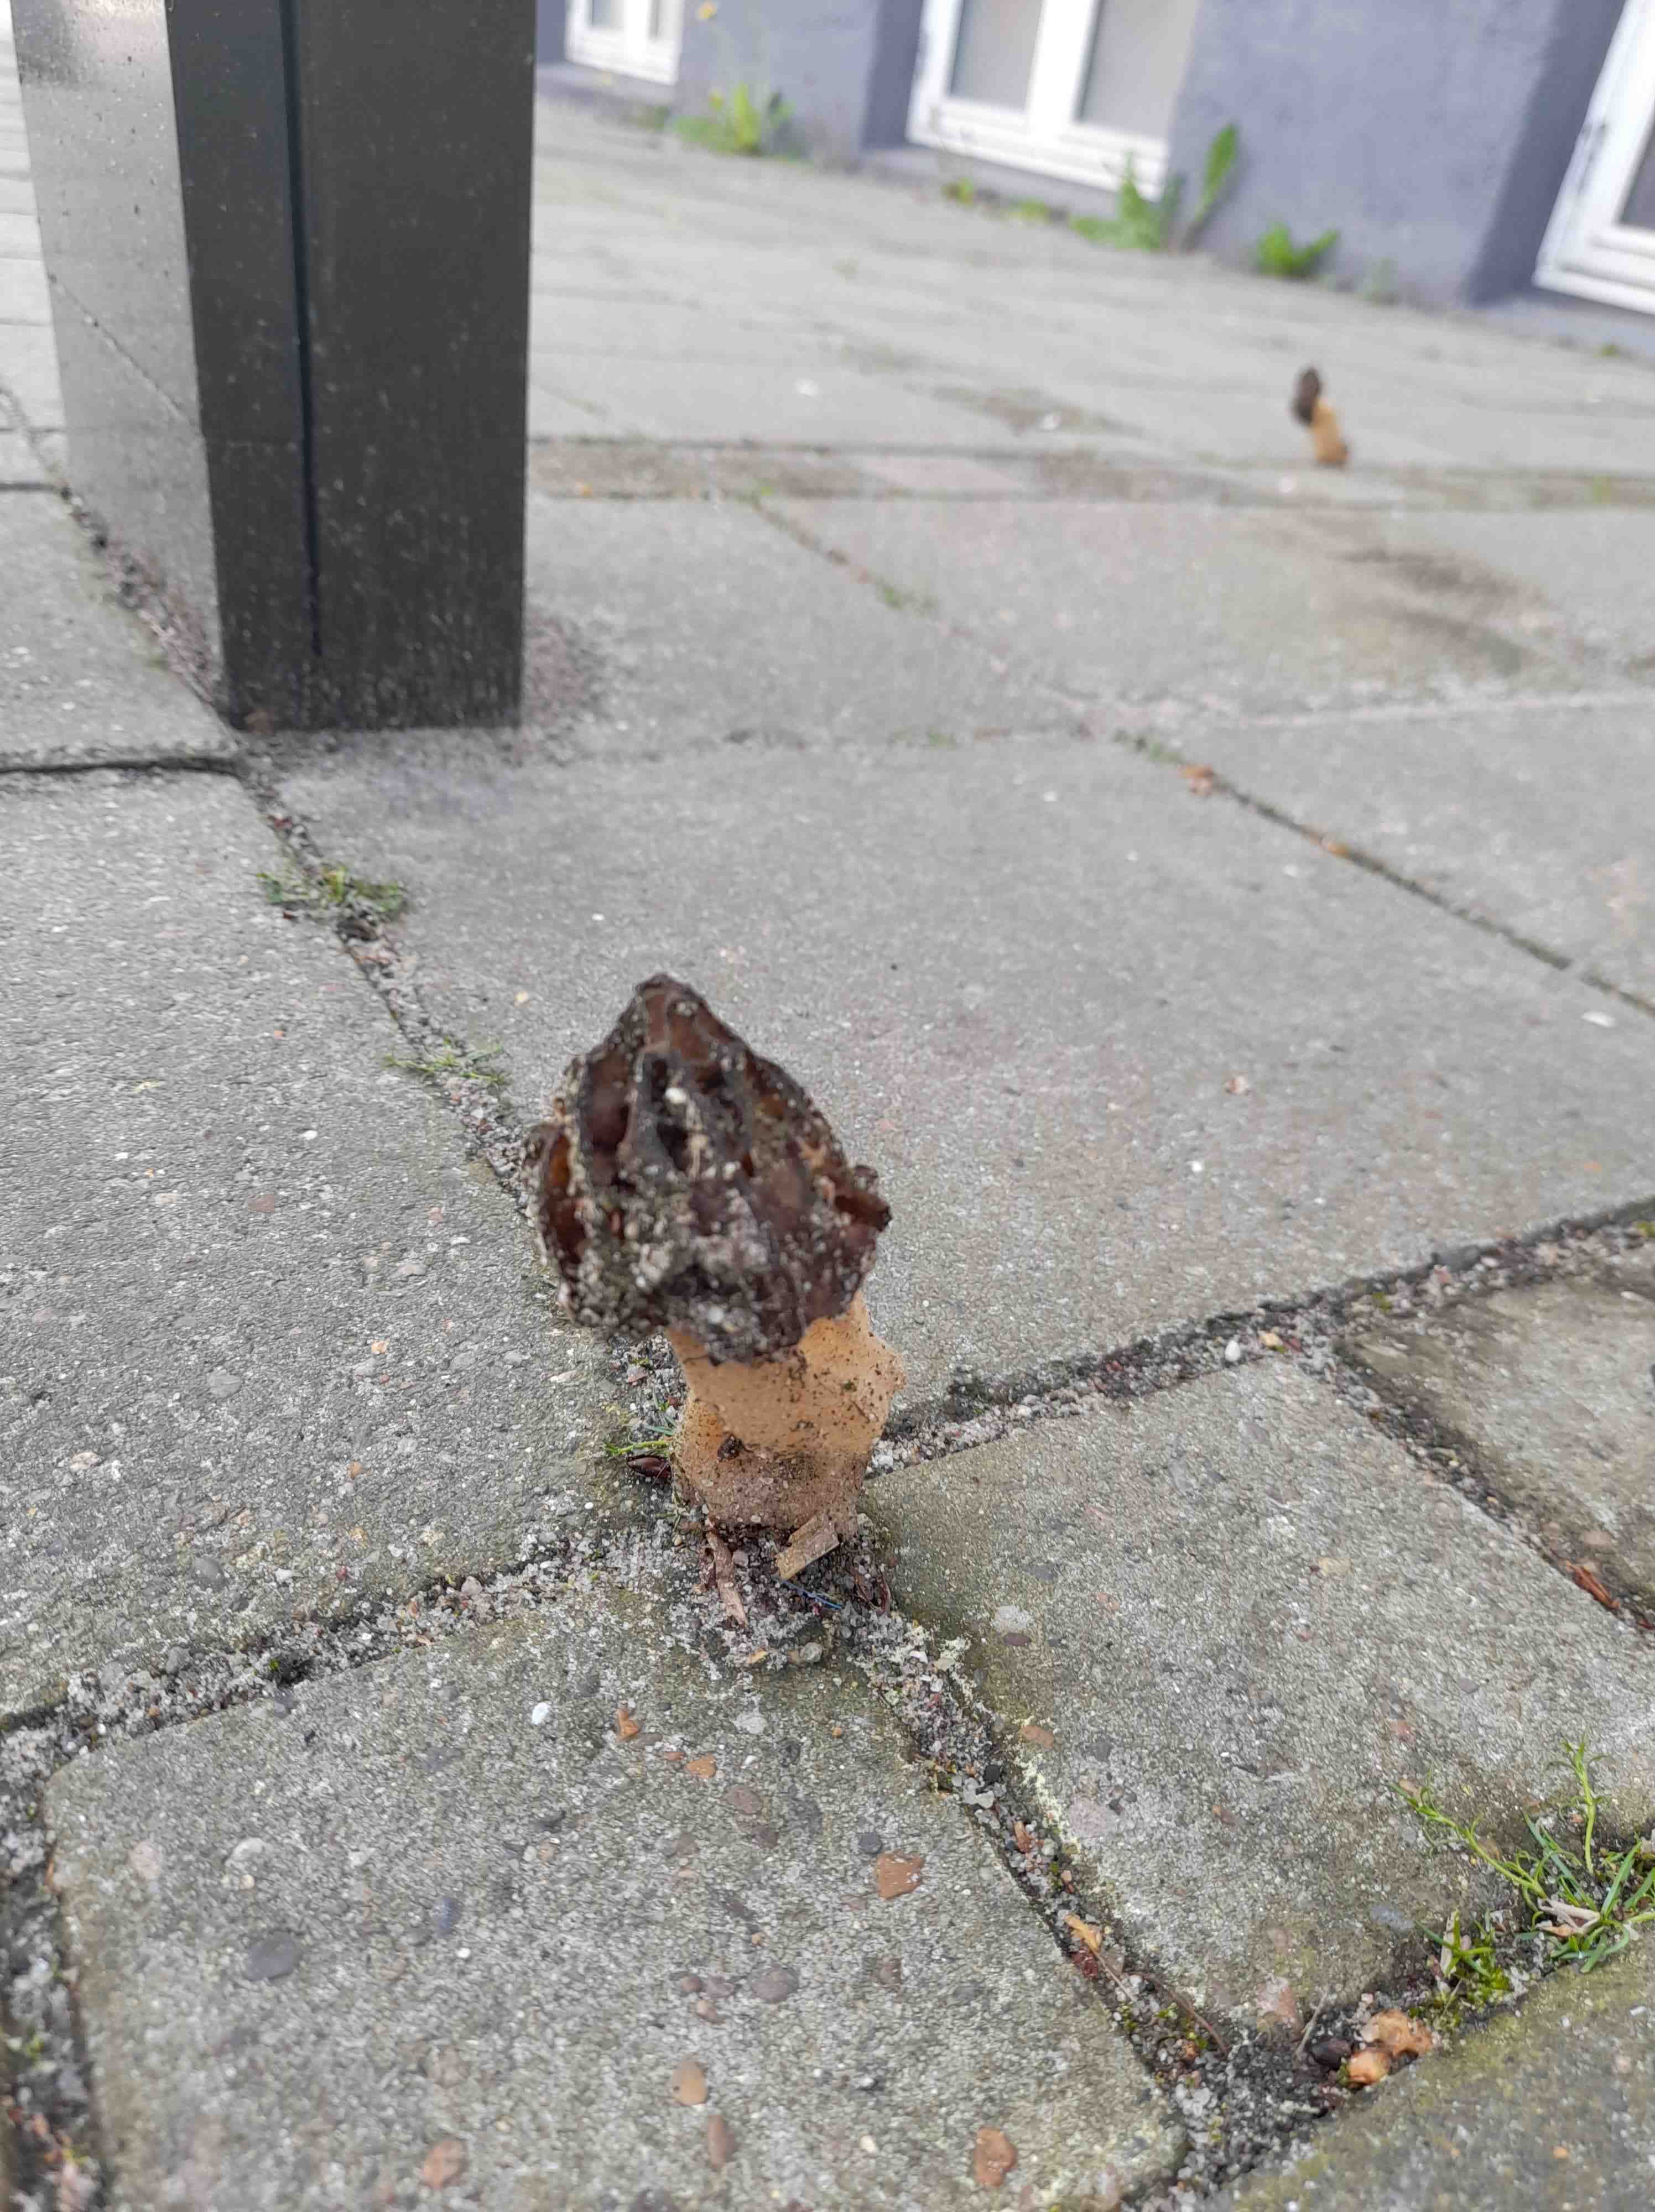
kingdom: Fungi
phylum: Ascomycota
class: Pezizomycetes
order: Pezizales
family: Morchellaceae
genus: Morchella
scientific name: Morchella semilibera
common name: hætte-morkel
